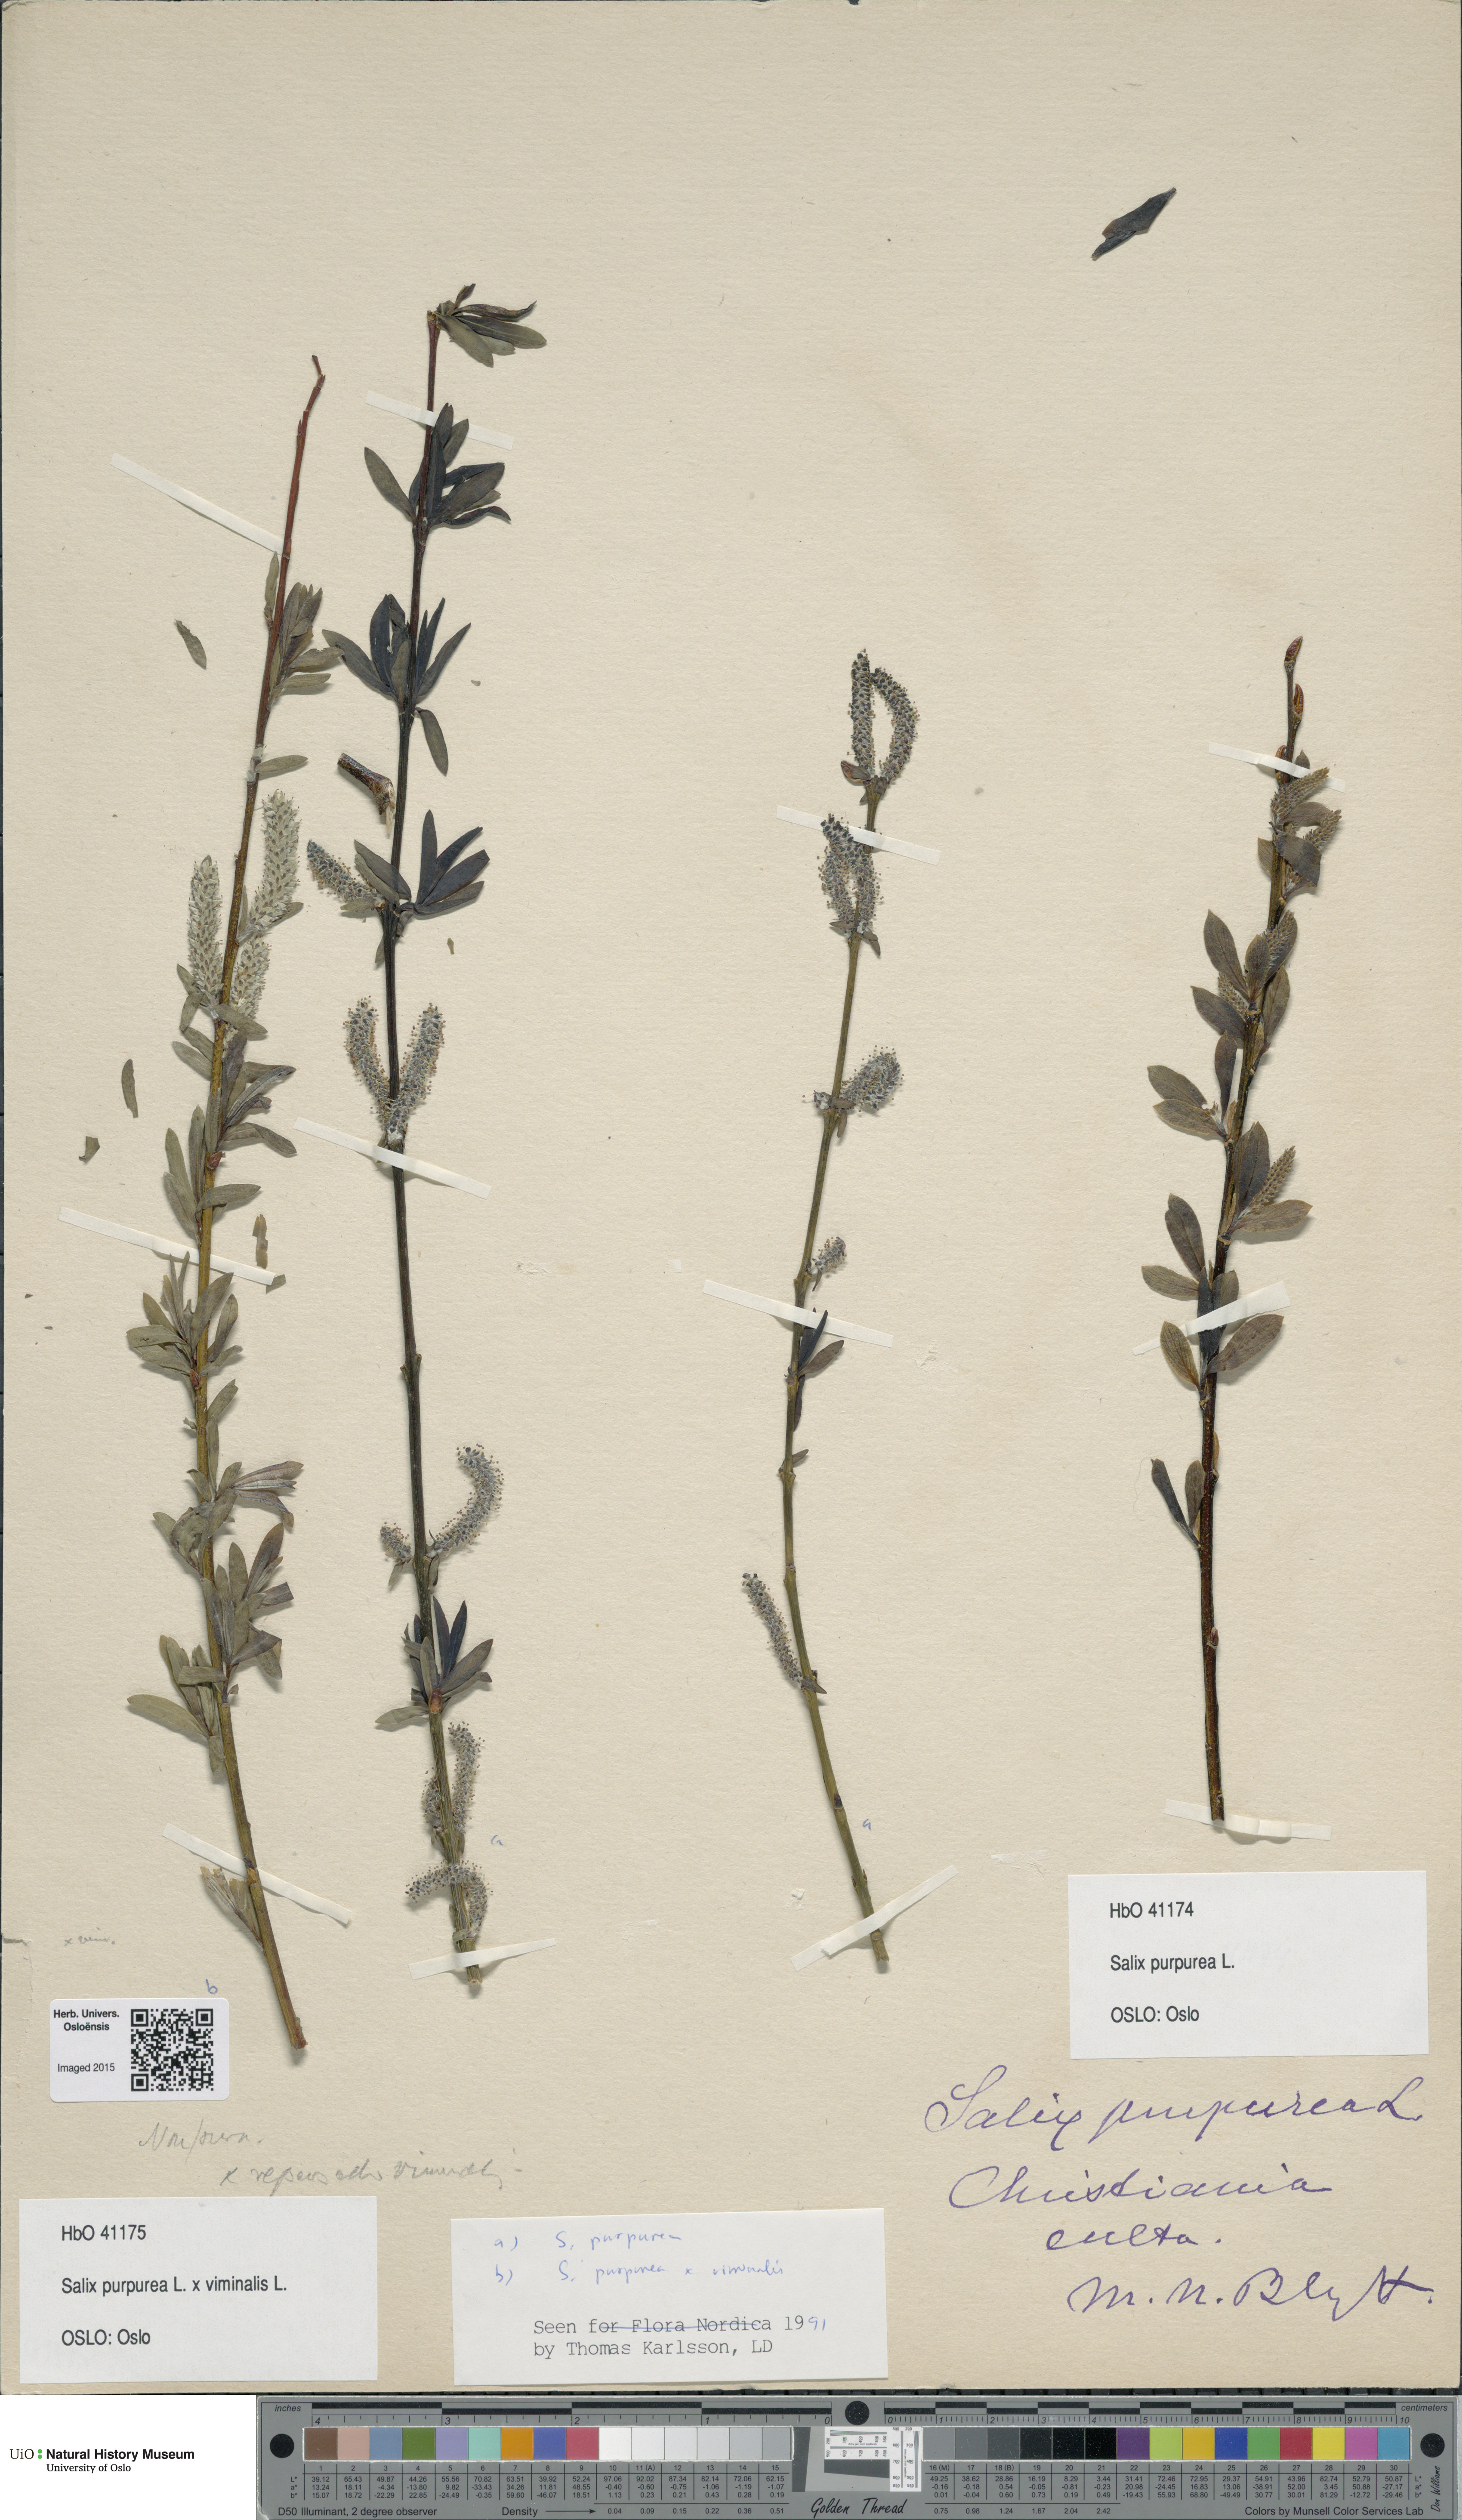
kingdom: Plantae
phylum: Tracheophyta
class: Magnoliopsida
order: Malpighiales
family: Salicaceae
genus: Salix
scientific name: Salix purpurea
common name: Purple willow
